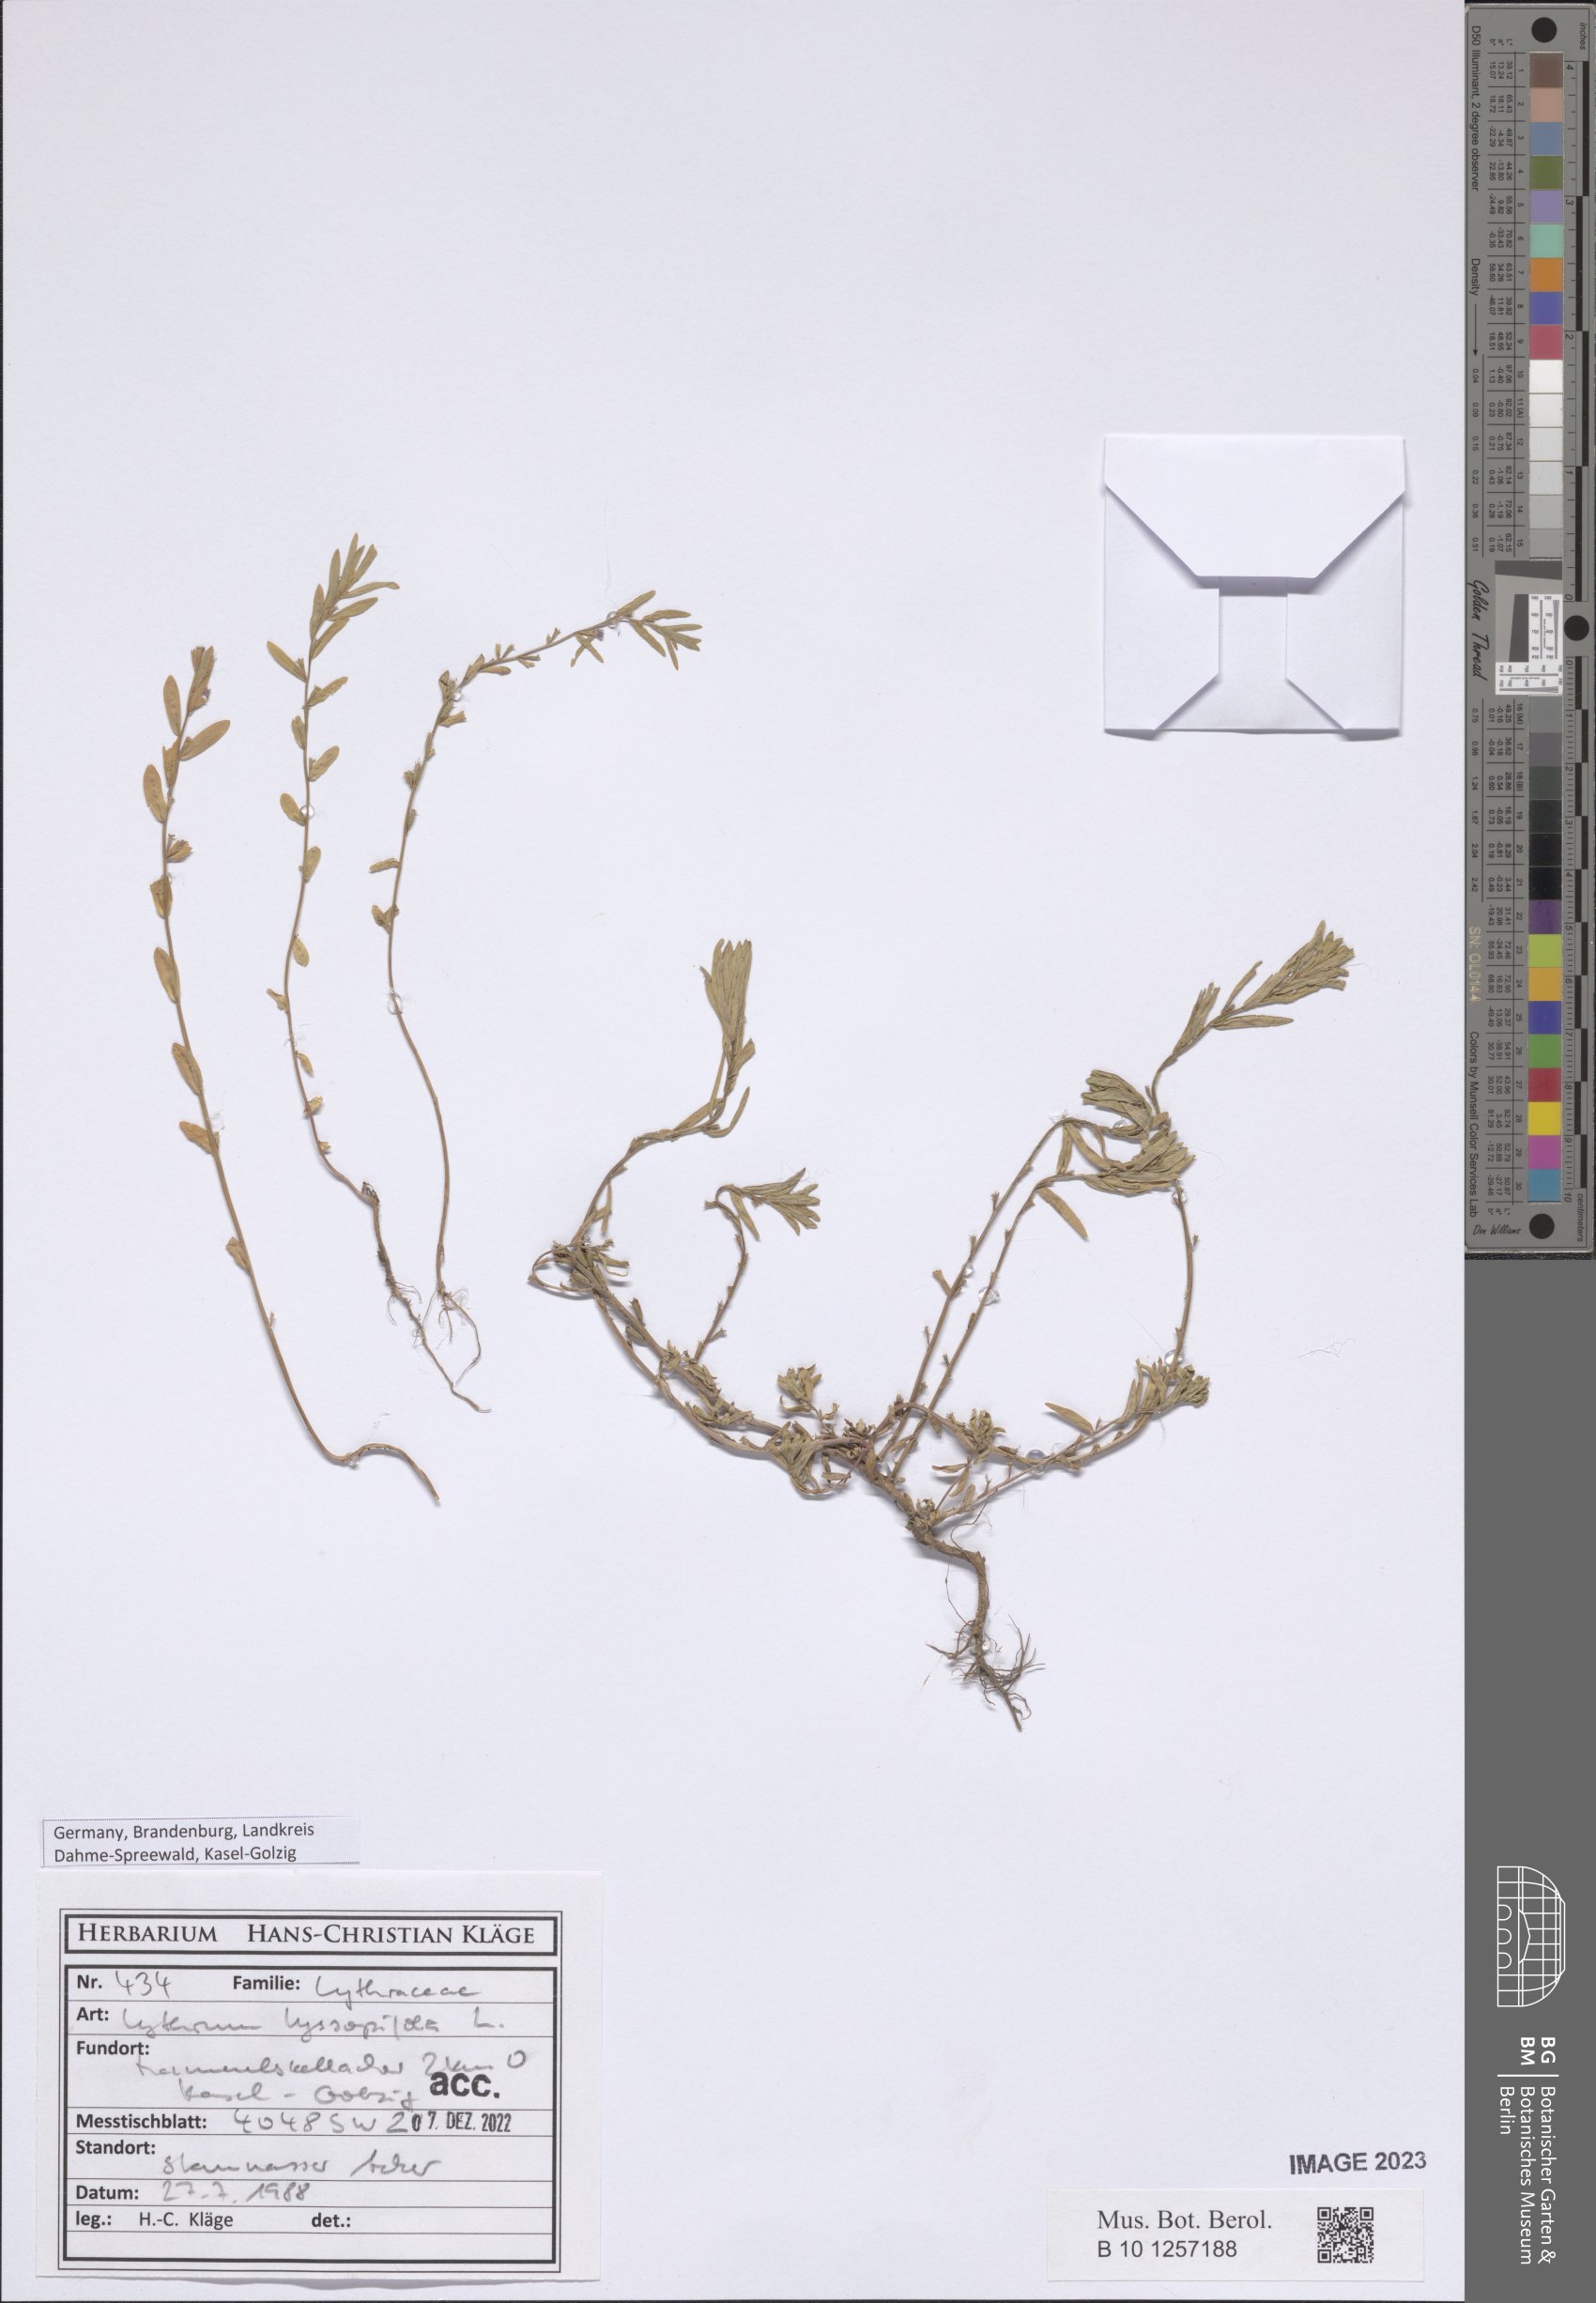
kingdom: Plantae
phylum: Tracheophyta
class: Magnoliopsida
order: Myrtales
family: Lythraceae
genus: Lythrum
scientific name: Lythrum hyssopifolia
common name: Grass-poly
